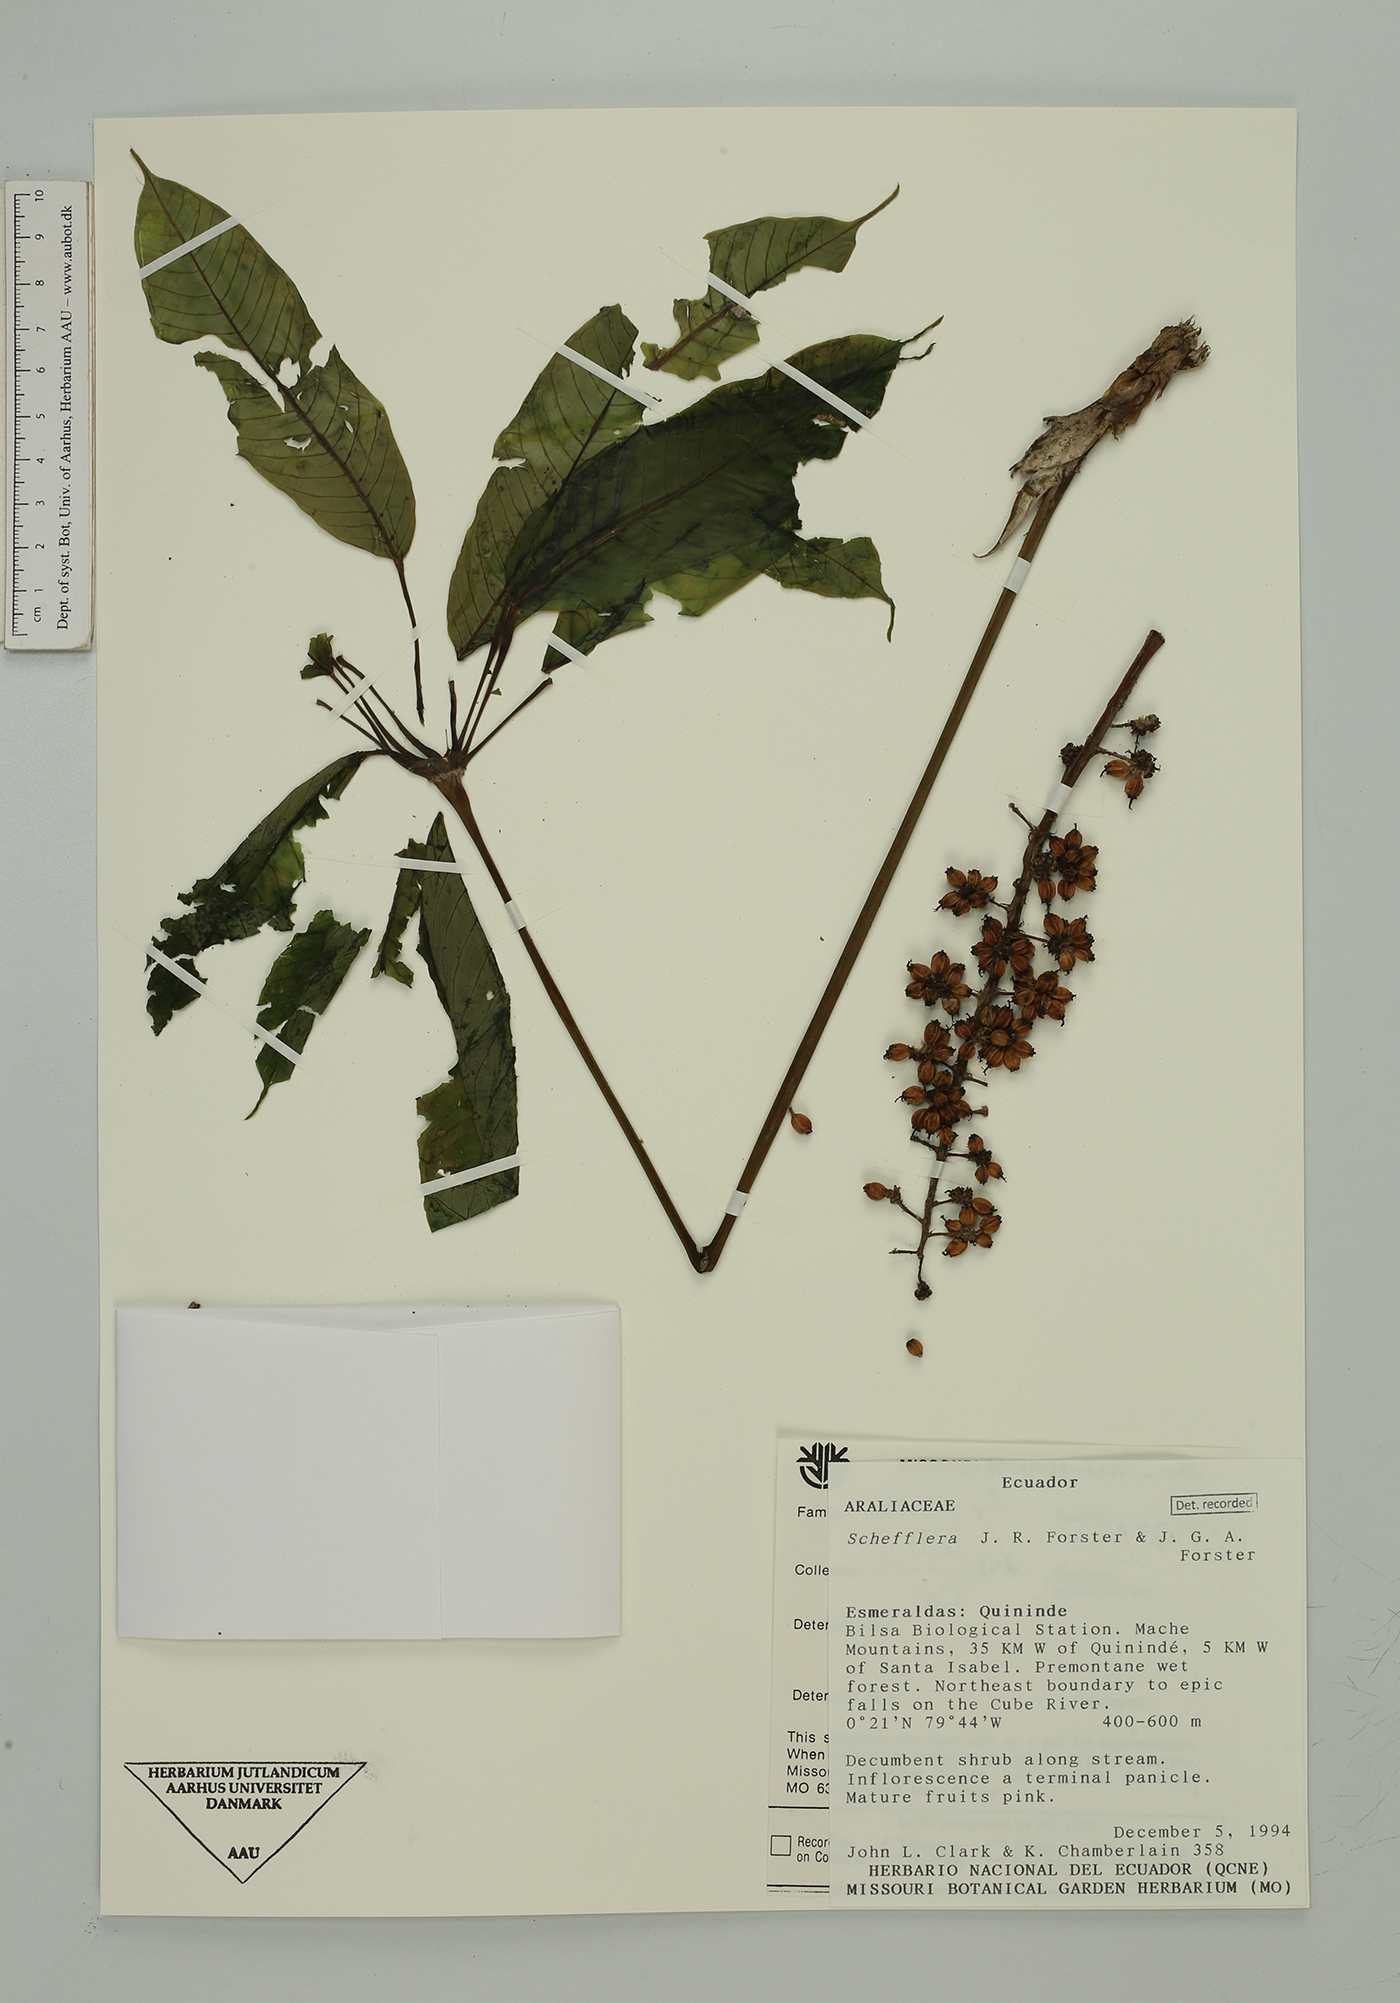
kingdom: Plantae
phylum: Tracheophyta
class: Magnoliopsida
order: Apiales
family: Araliaceae
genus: Sciodaphyllum
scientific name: Sciodaphyllum
